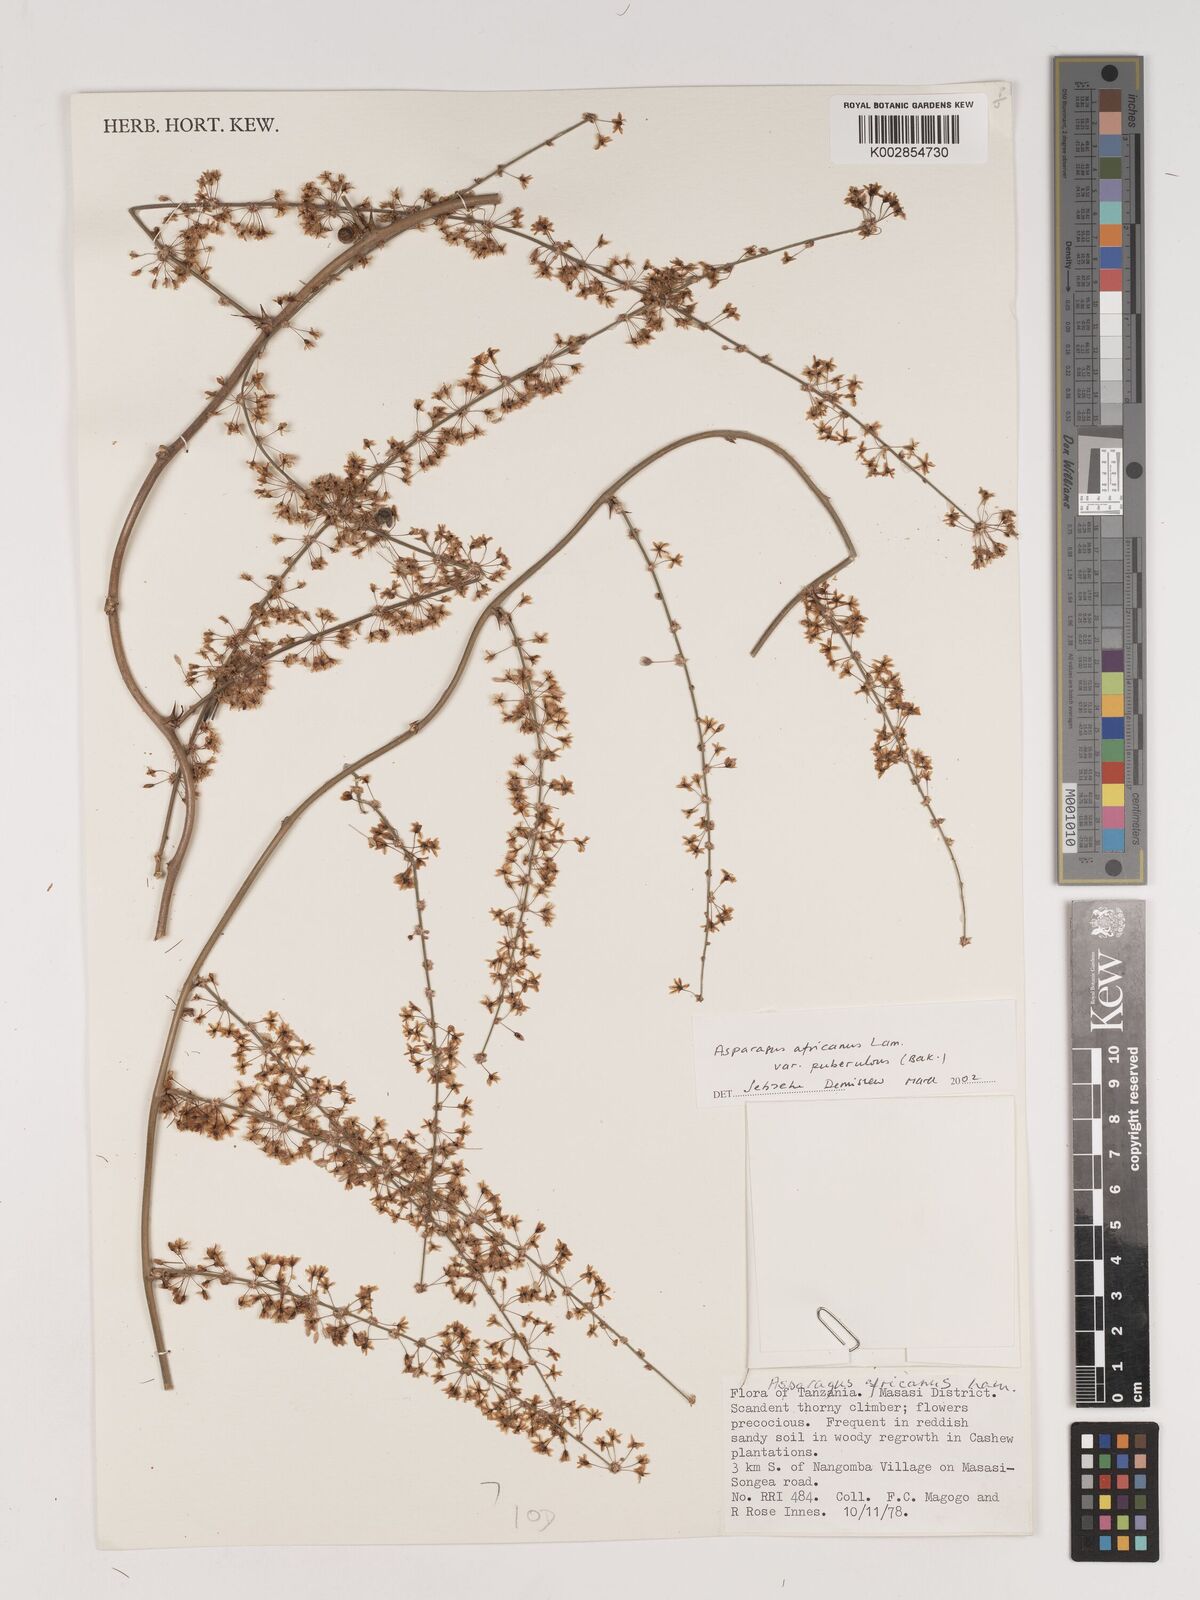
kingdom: Plantae
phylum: Tracheophyta
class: Liliopsida
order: Asparagales
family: Asparagaceae
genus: Asparagus
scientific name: Asparagus africanus
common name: Asparagus-fern
